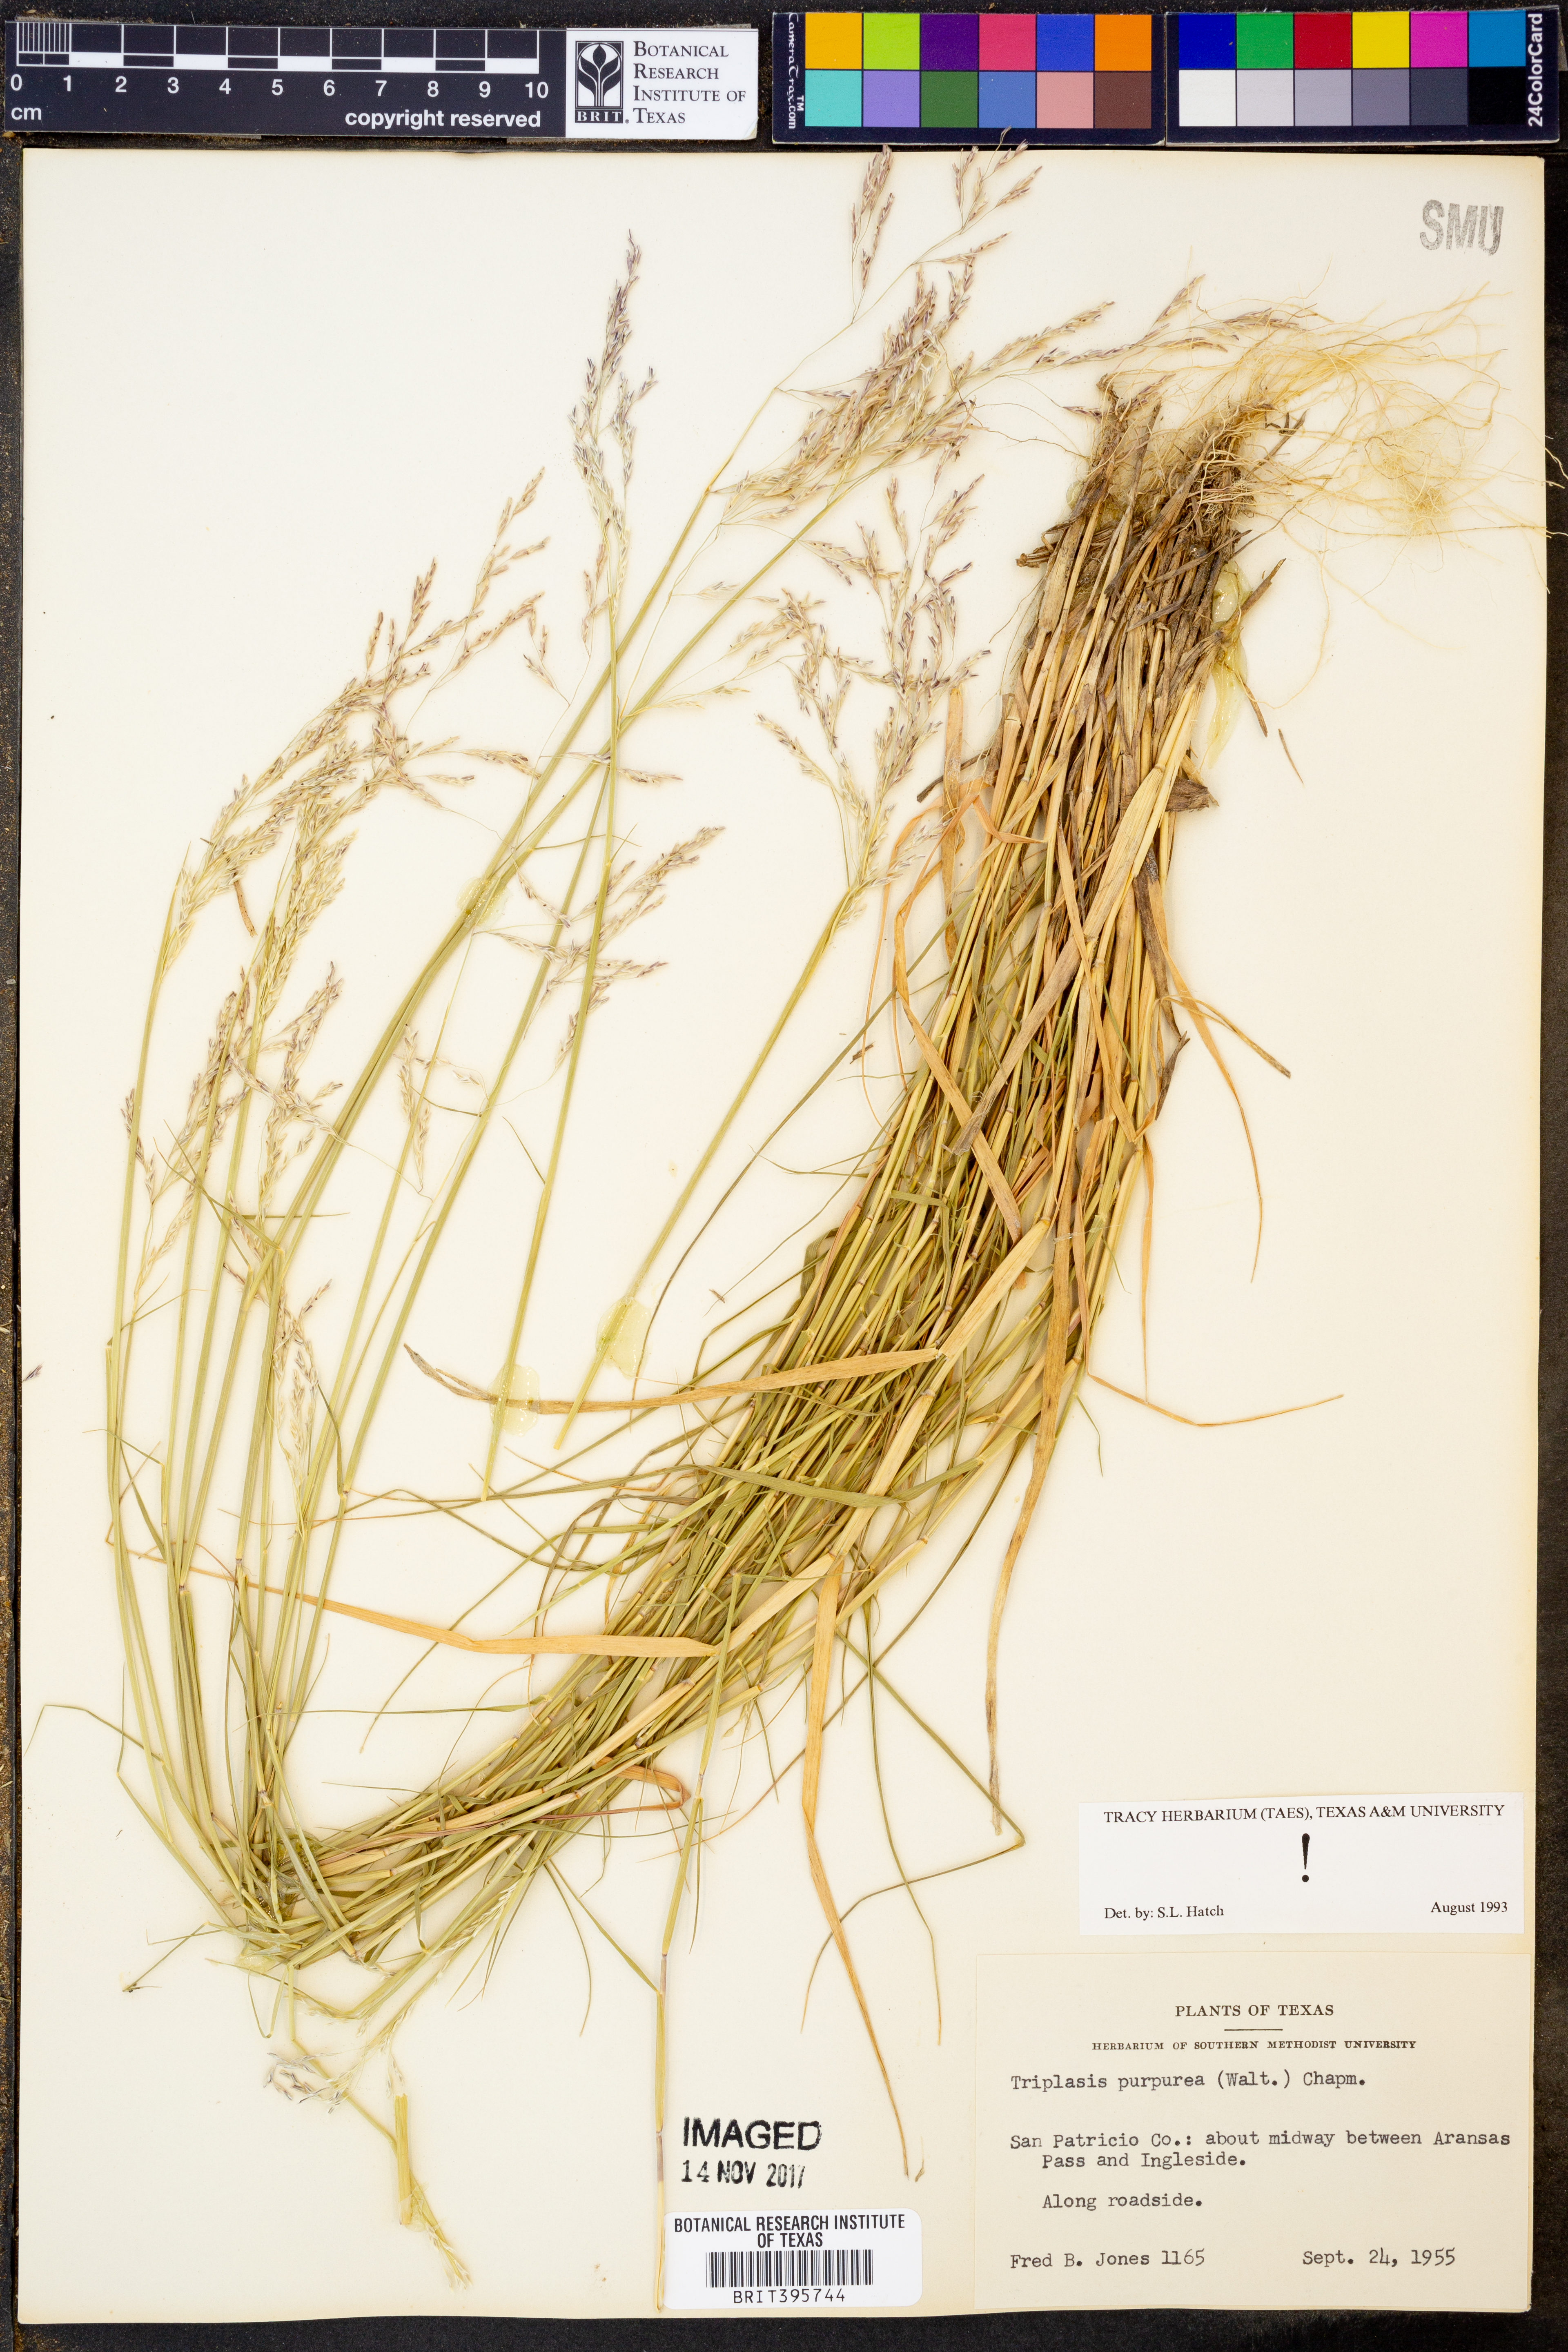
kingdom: Plantae
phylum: Tracheophyta
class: Liliopsida
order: Poales
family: Poaceae
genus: Triplasis
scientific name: Triplasis purpurea
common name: Purple sand grass
